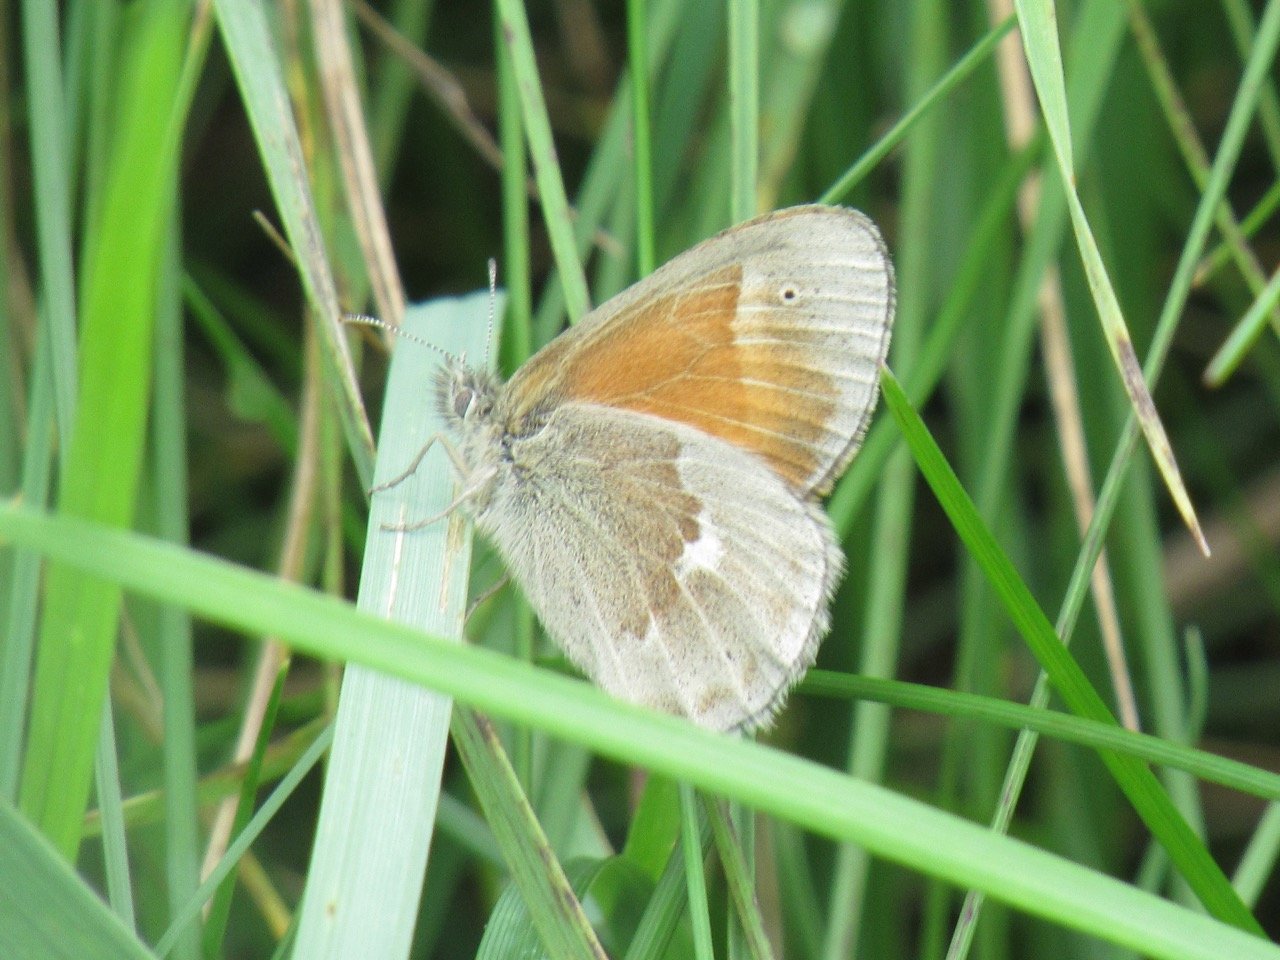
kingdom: Animalia
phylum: Arthropoda
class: Insecta
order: Lepidoptera
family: Nymphalidae
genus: Coenonympha
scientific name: Coenonympha tullia
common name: Large Heath
